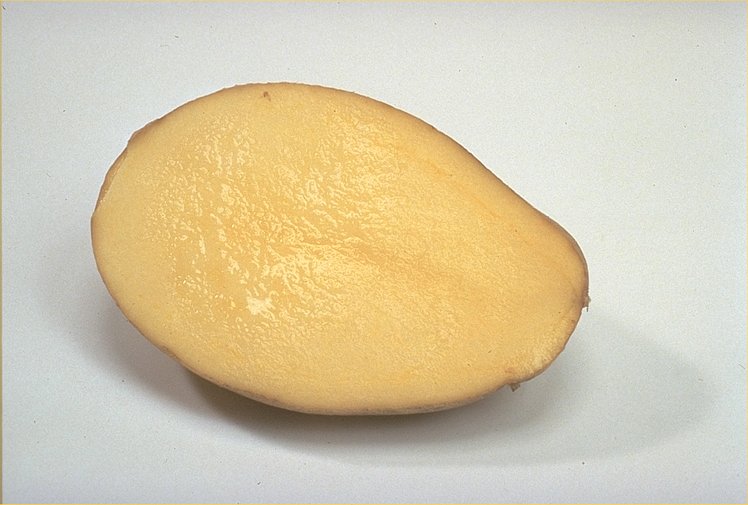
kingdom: Plantae
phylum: Tracheophyta
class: Magnoliopsida
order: Solanales
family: Solanaceae
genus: Solanum
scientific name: Solanum tuberosum
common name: Potato
